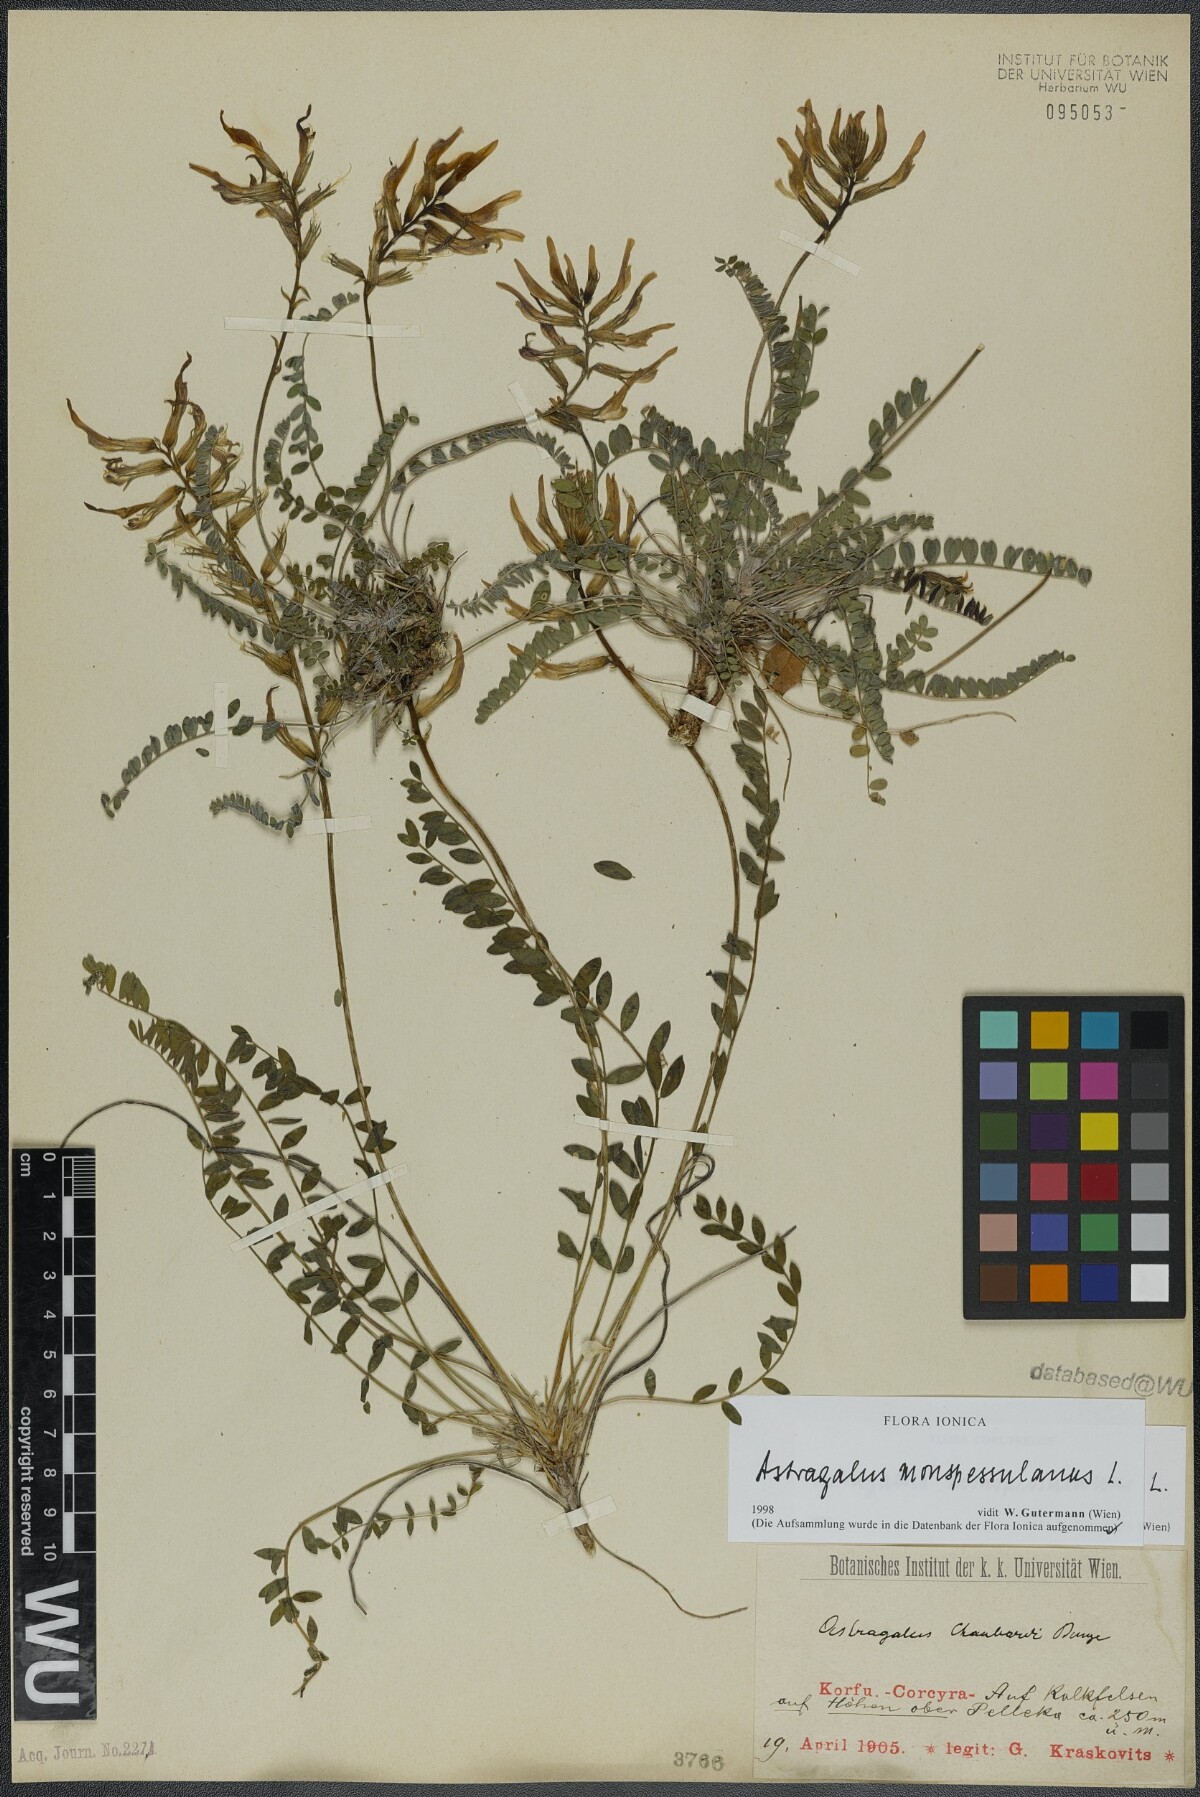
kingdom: Plantae
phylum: Tracheophyta
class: Magnoliopsida
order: Fabales
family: Fabaceae
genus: Astragalus
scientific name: Astragalus monspessulanus
